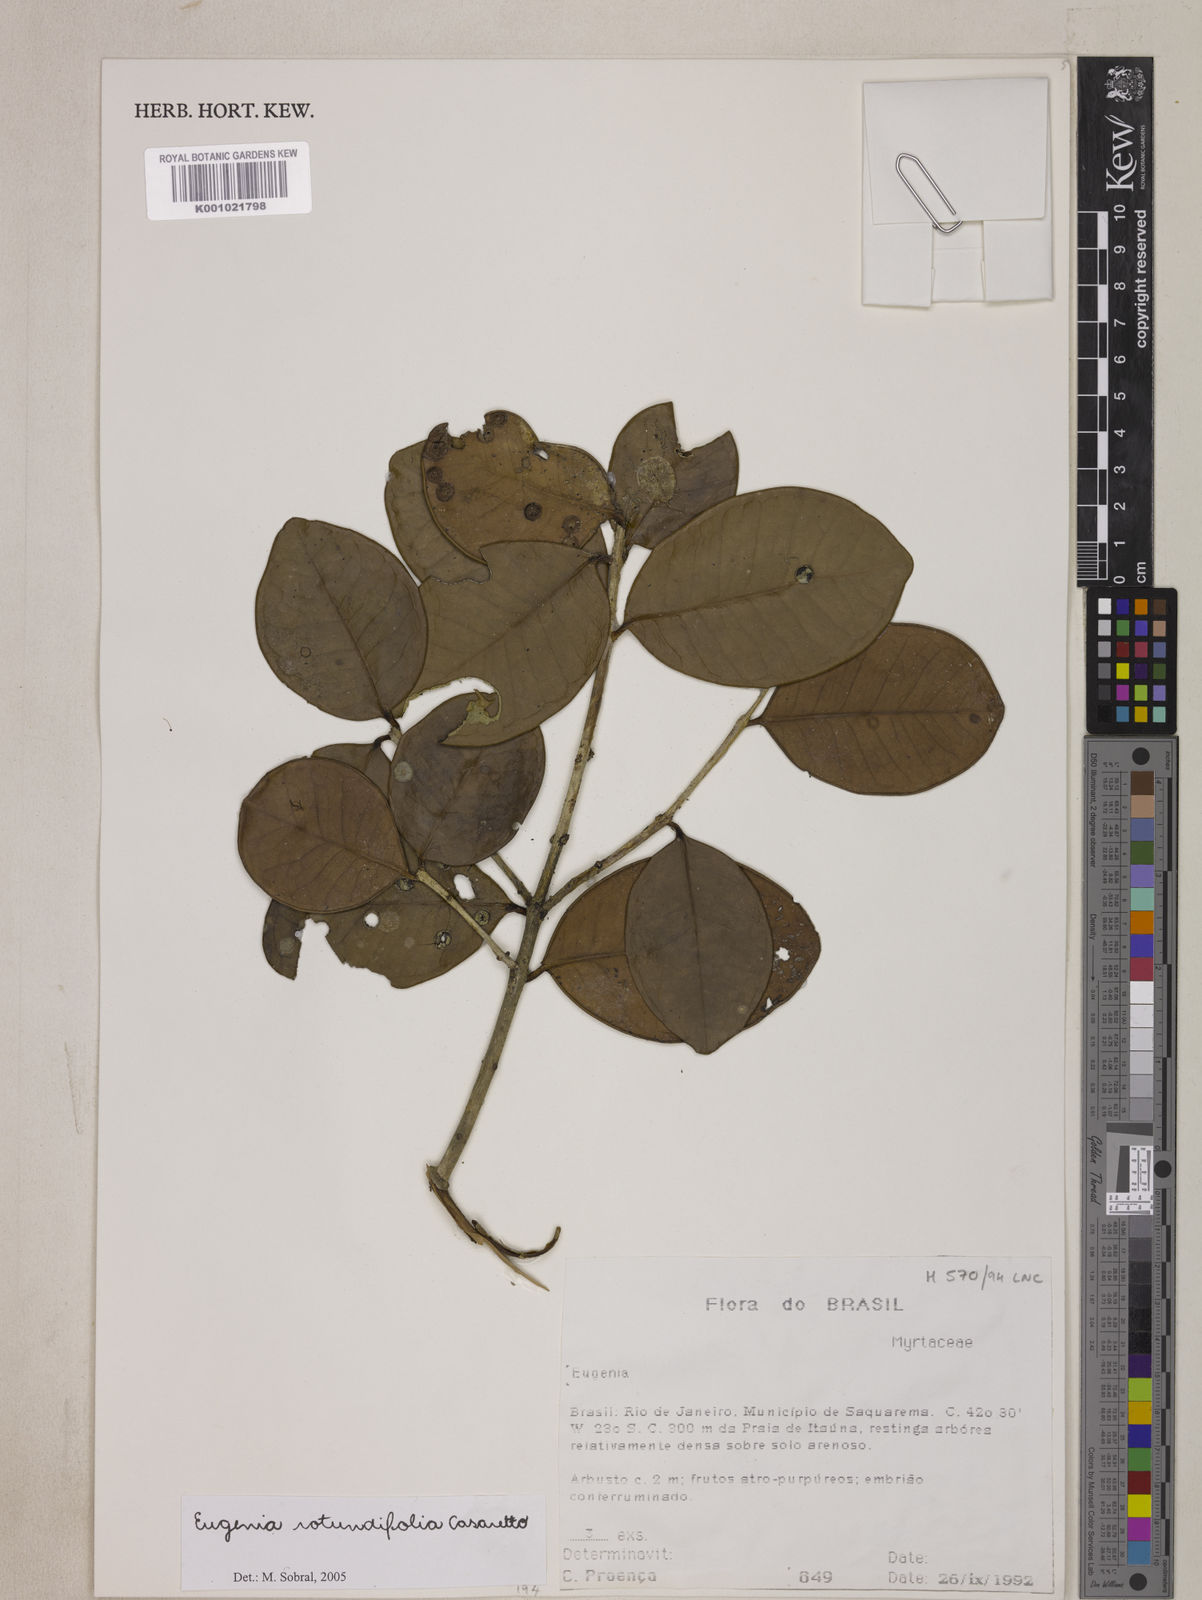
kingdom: Plantae
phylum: Tracheophyta
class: Magnoliopsida
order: Myrtales
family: Myrtaceae
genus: Eugenia
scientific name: Eugenia casarettoana
